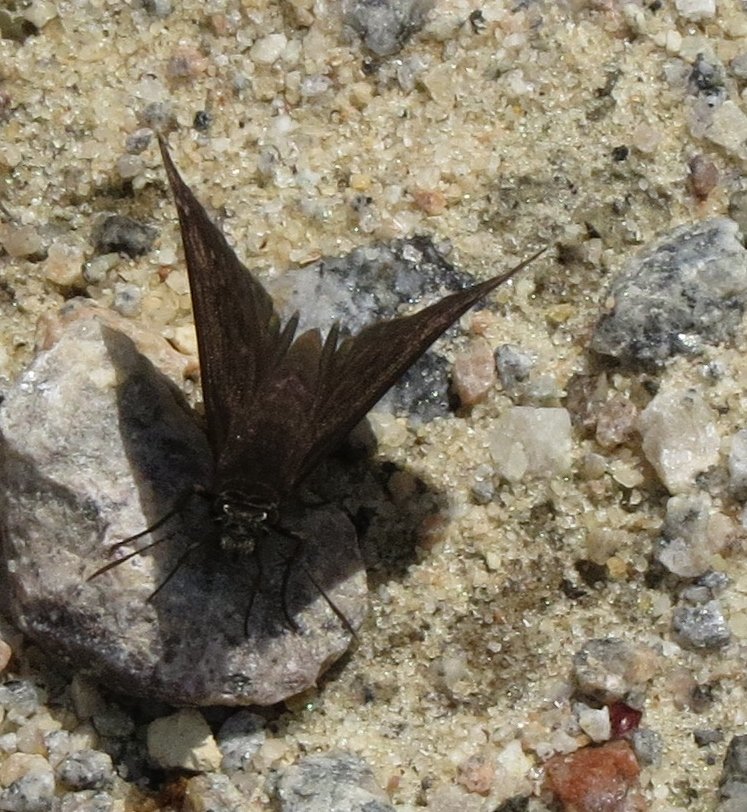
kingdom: Animalia
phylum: Arthropoda
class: Insecta
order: Lepidoptera
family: Hesperiidae
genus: Erynnis
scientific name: Erynnis zarucco
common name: Zarucco Duskywing
